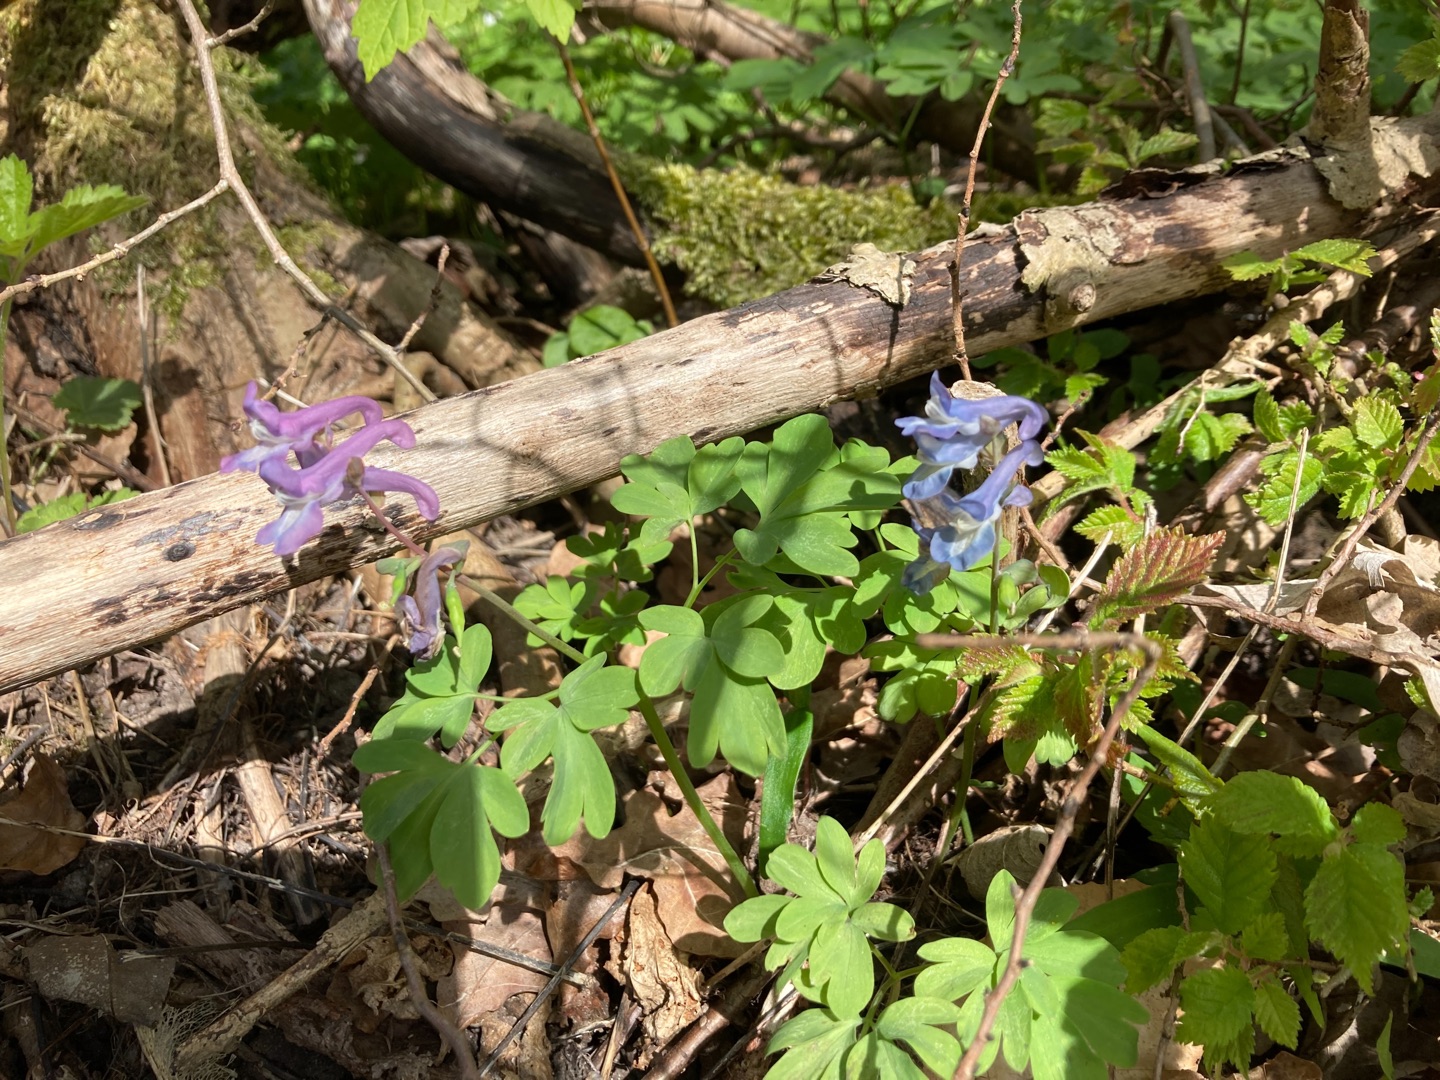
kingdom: Plantae
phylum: Tracheophyta
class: Magnoliopsida
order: Ranunculales
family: Papaveraceae
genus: Corydalis
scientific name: Corydalis cava
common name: Hulrodet lærkespore
